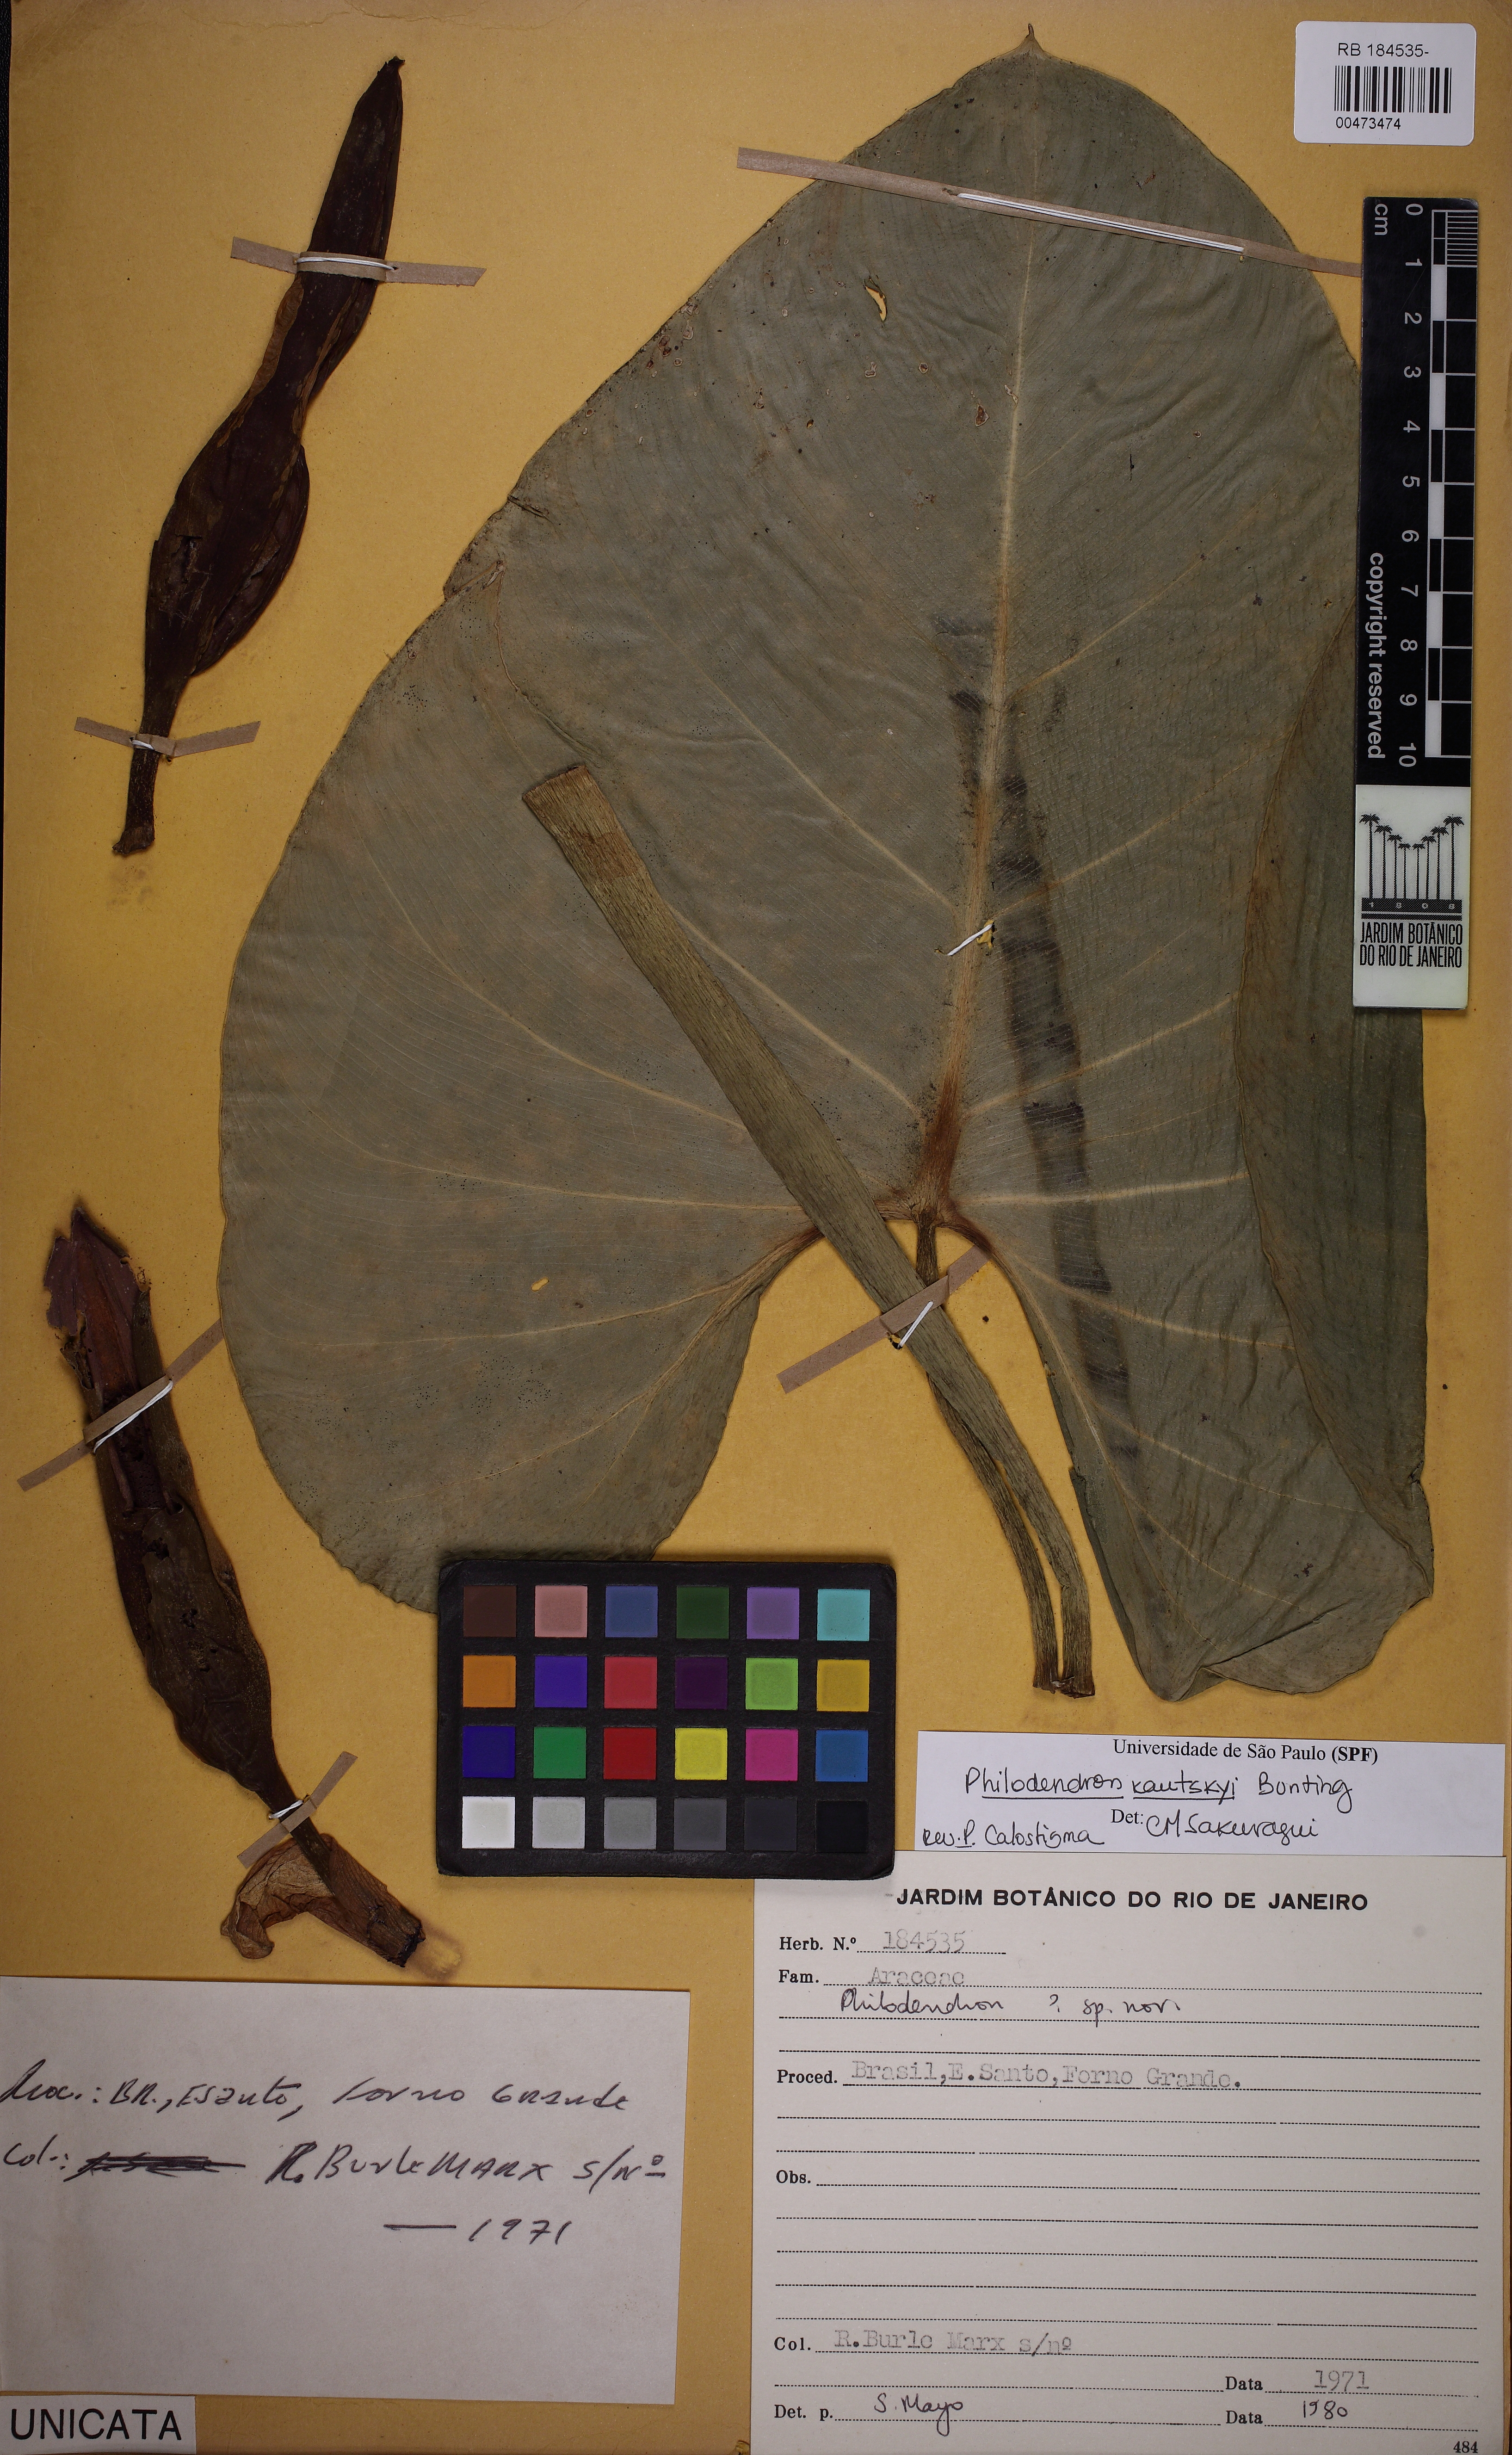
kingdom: Plantae
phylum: Tracheophyta
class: Liliopsida
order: Alismatales
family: Araceae
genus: Philodendron
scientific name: Philodendron kautskyi
